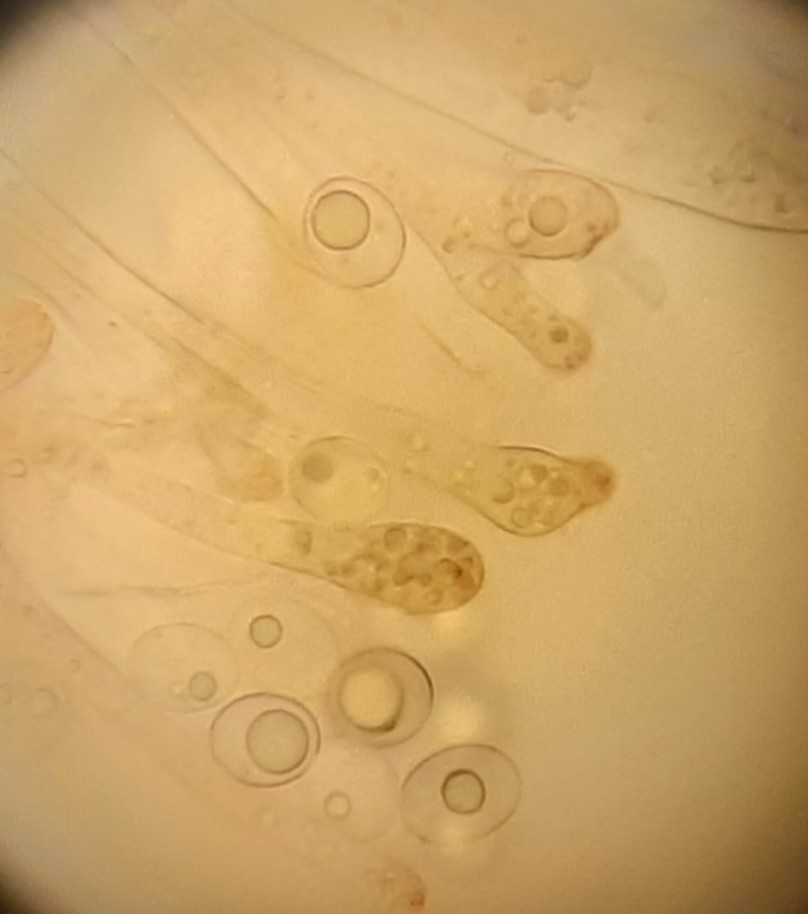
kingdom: Fungi
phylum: Ascomycota
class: Pezizomycetes
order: Pezizales
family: Pyronemataceae
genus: Octospora
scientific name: Octospora rubens
